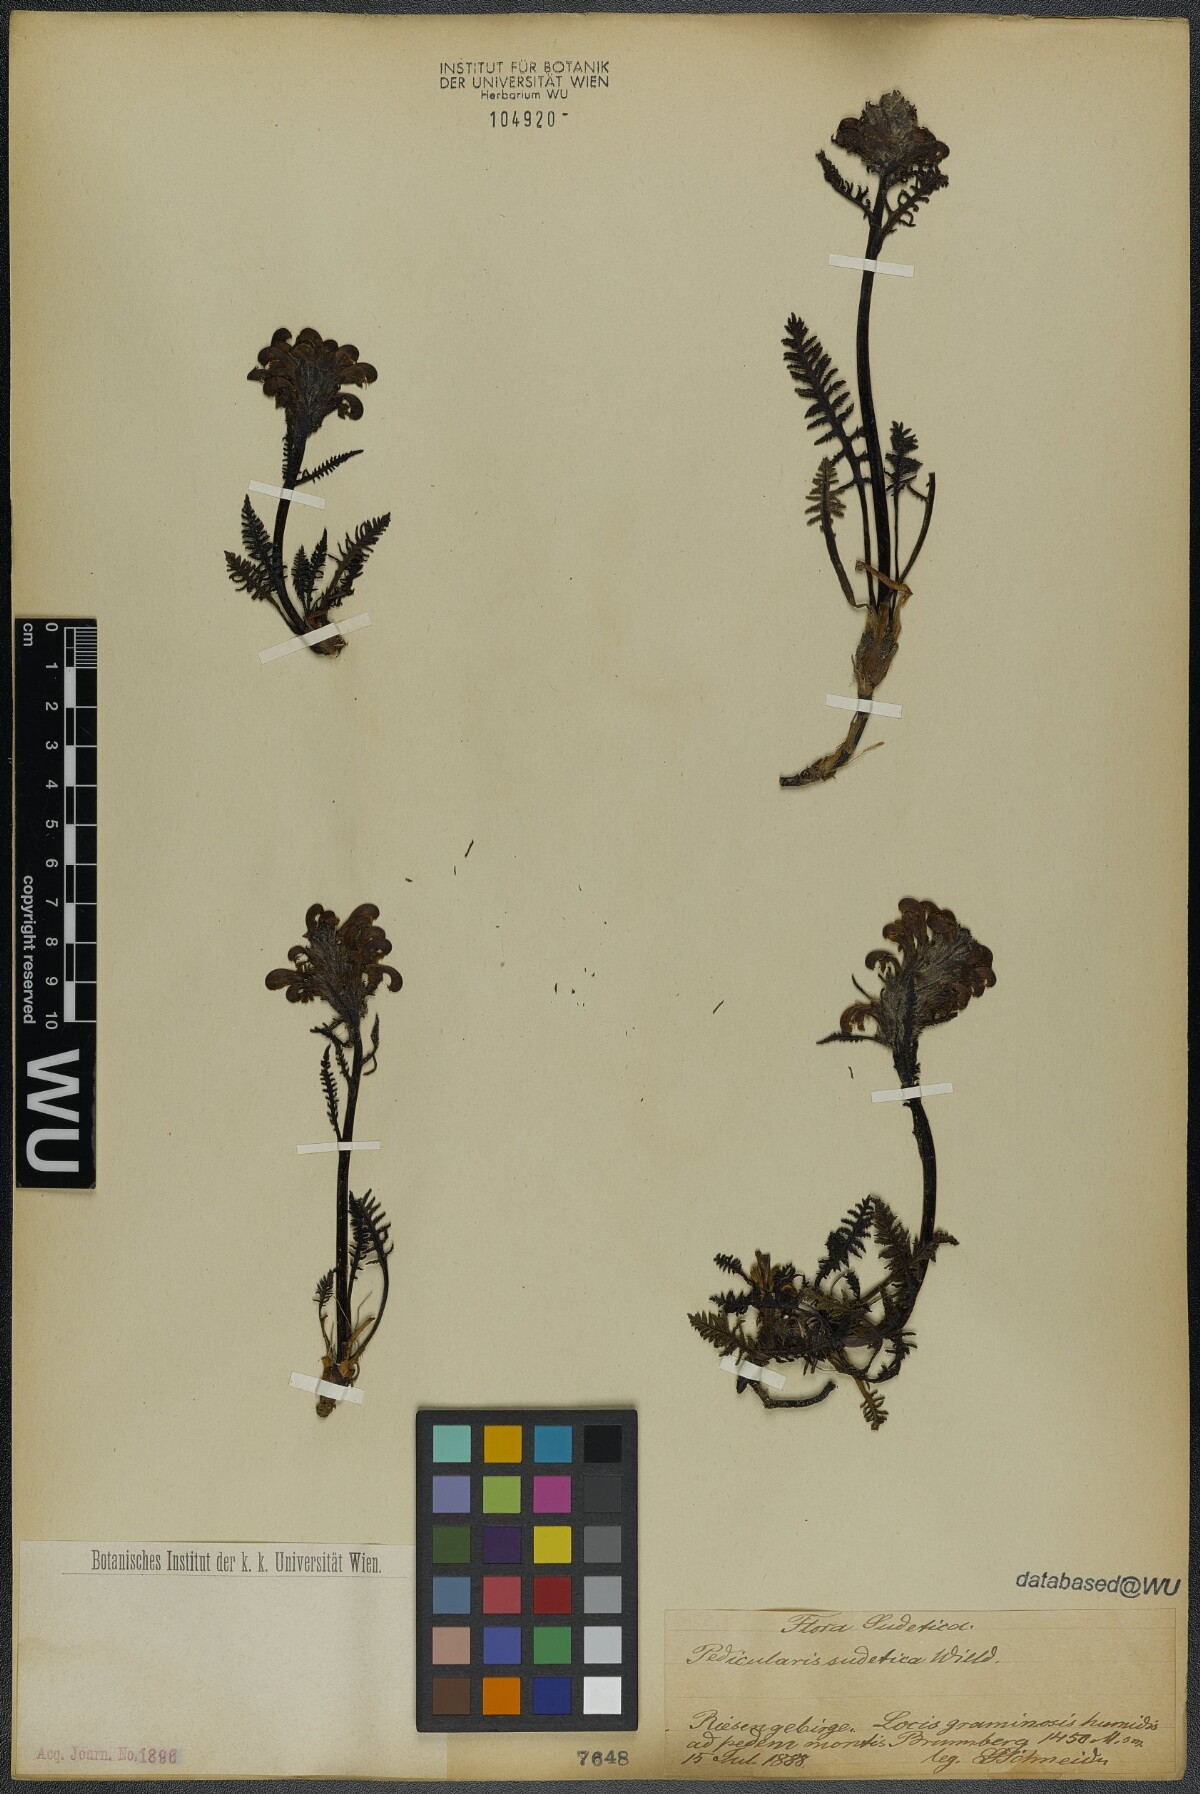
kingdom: Plantae
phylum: Tracheophyta
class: Magnoliopsida
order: Lamiales
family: Orobanchaceae
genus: Pedicularis
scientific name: Pedicularis sudetica
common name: Sudeten lousewort
